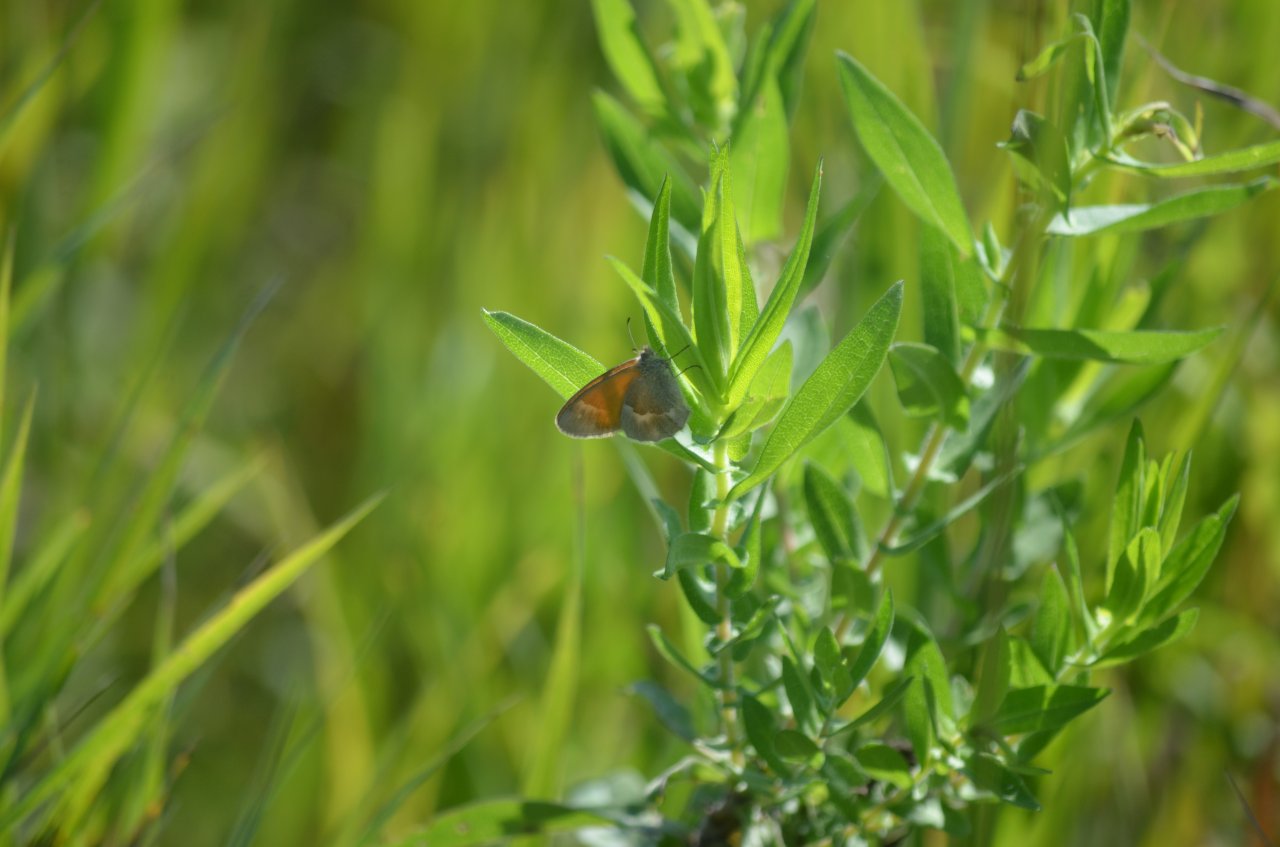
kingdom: Animalia
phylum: Arthropoda
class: Insecta
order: Lepidoptera
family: Nymphalidae
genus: Coenonympha
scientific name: Coenonympha tullia
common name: Large Heath
